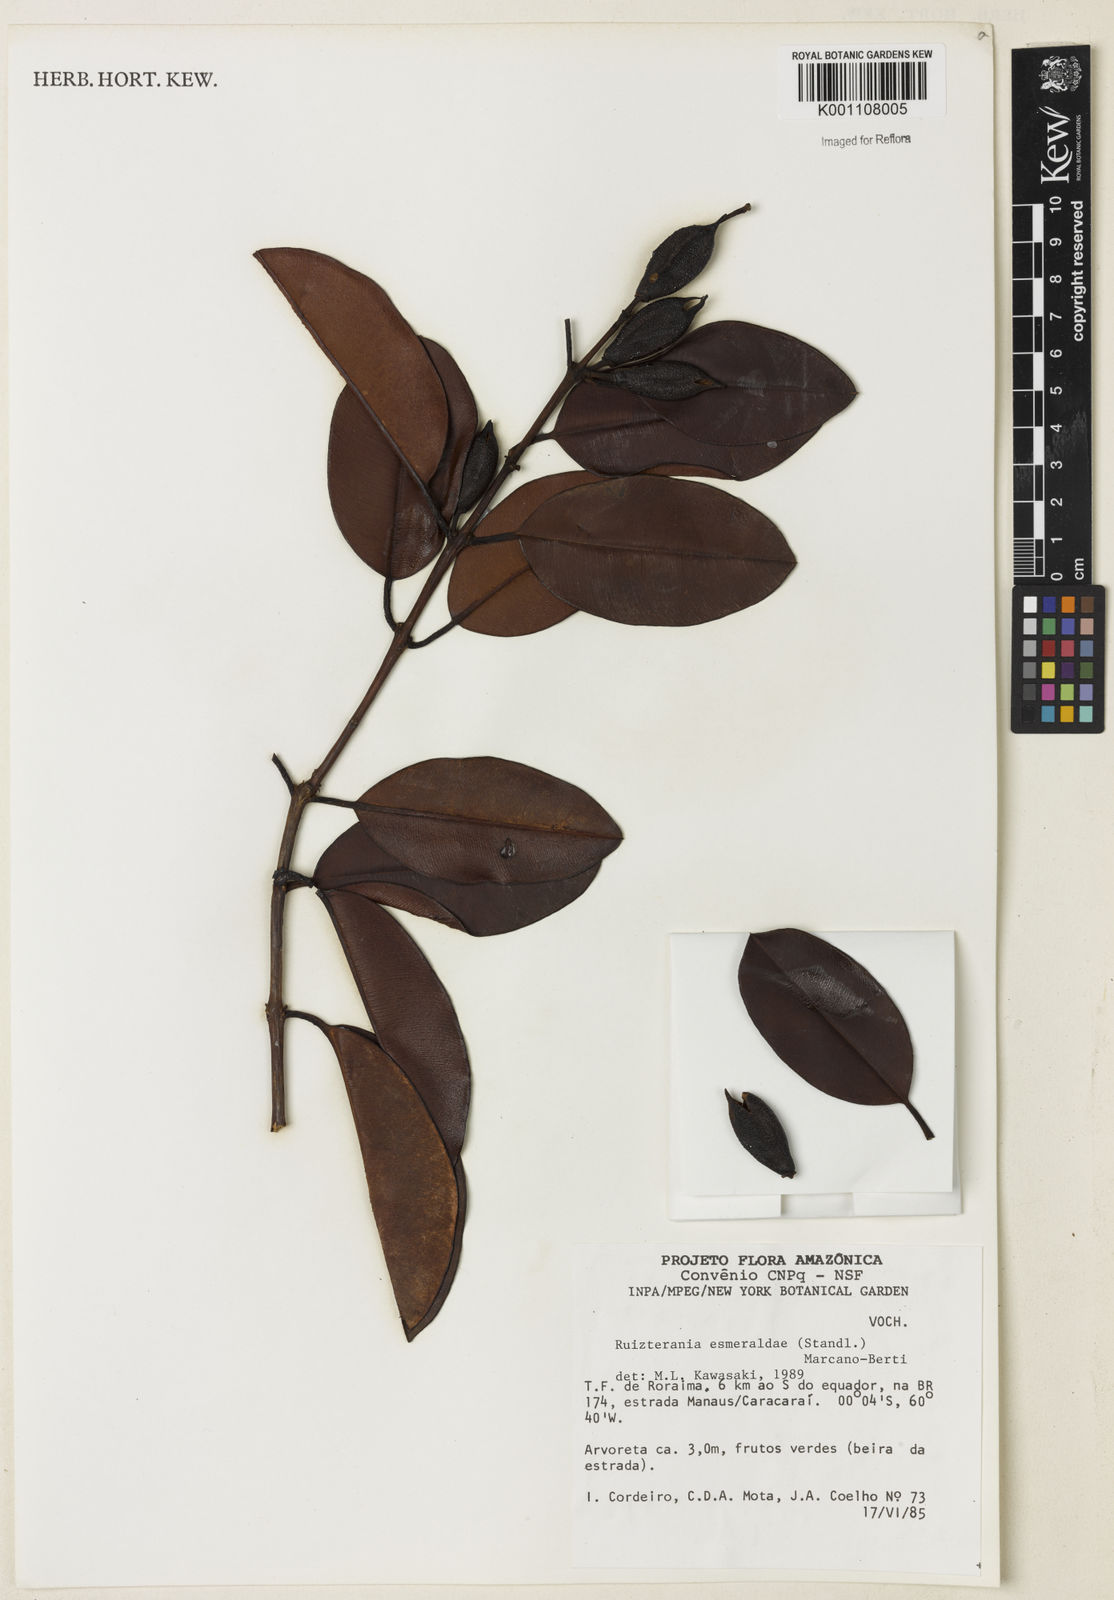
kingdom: Plantae
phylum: Tracheophyta
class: Magnoliopsida
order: Myrtales
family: Vochysiaceae
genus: Ruizterania
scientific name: Ruizterania esmeraldae
